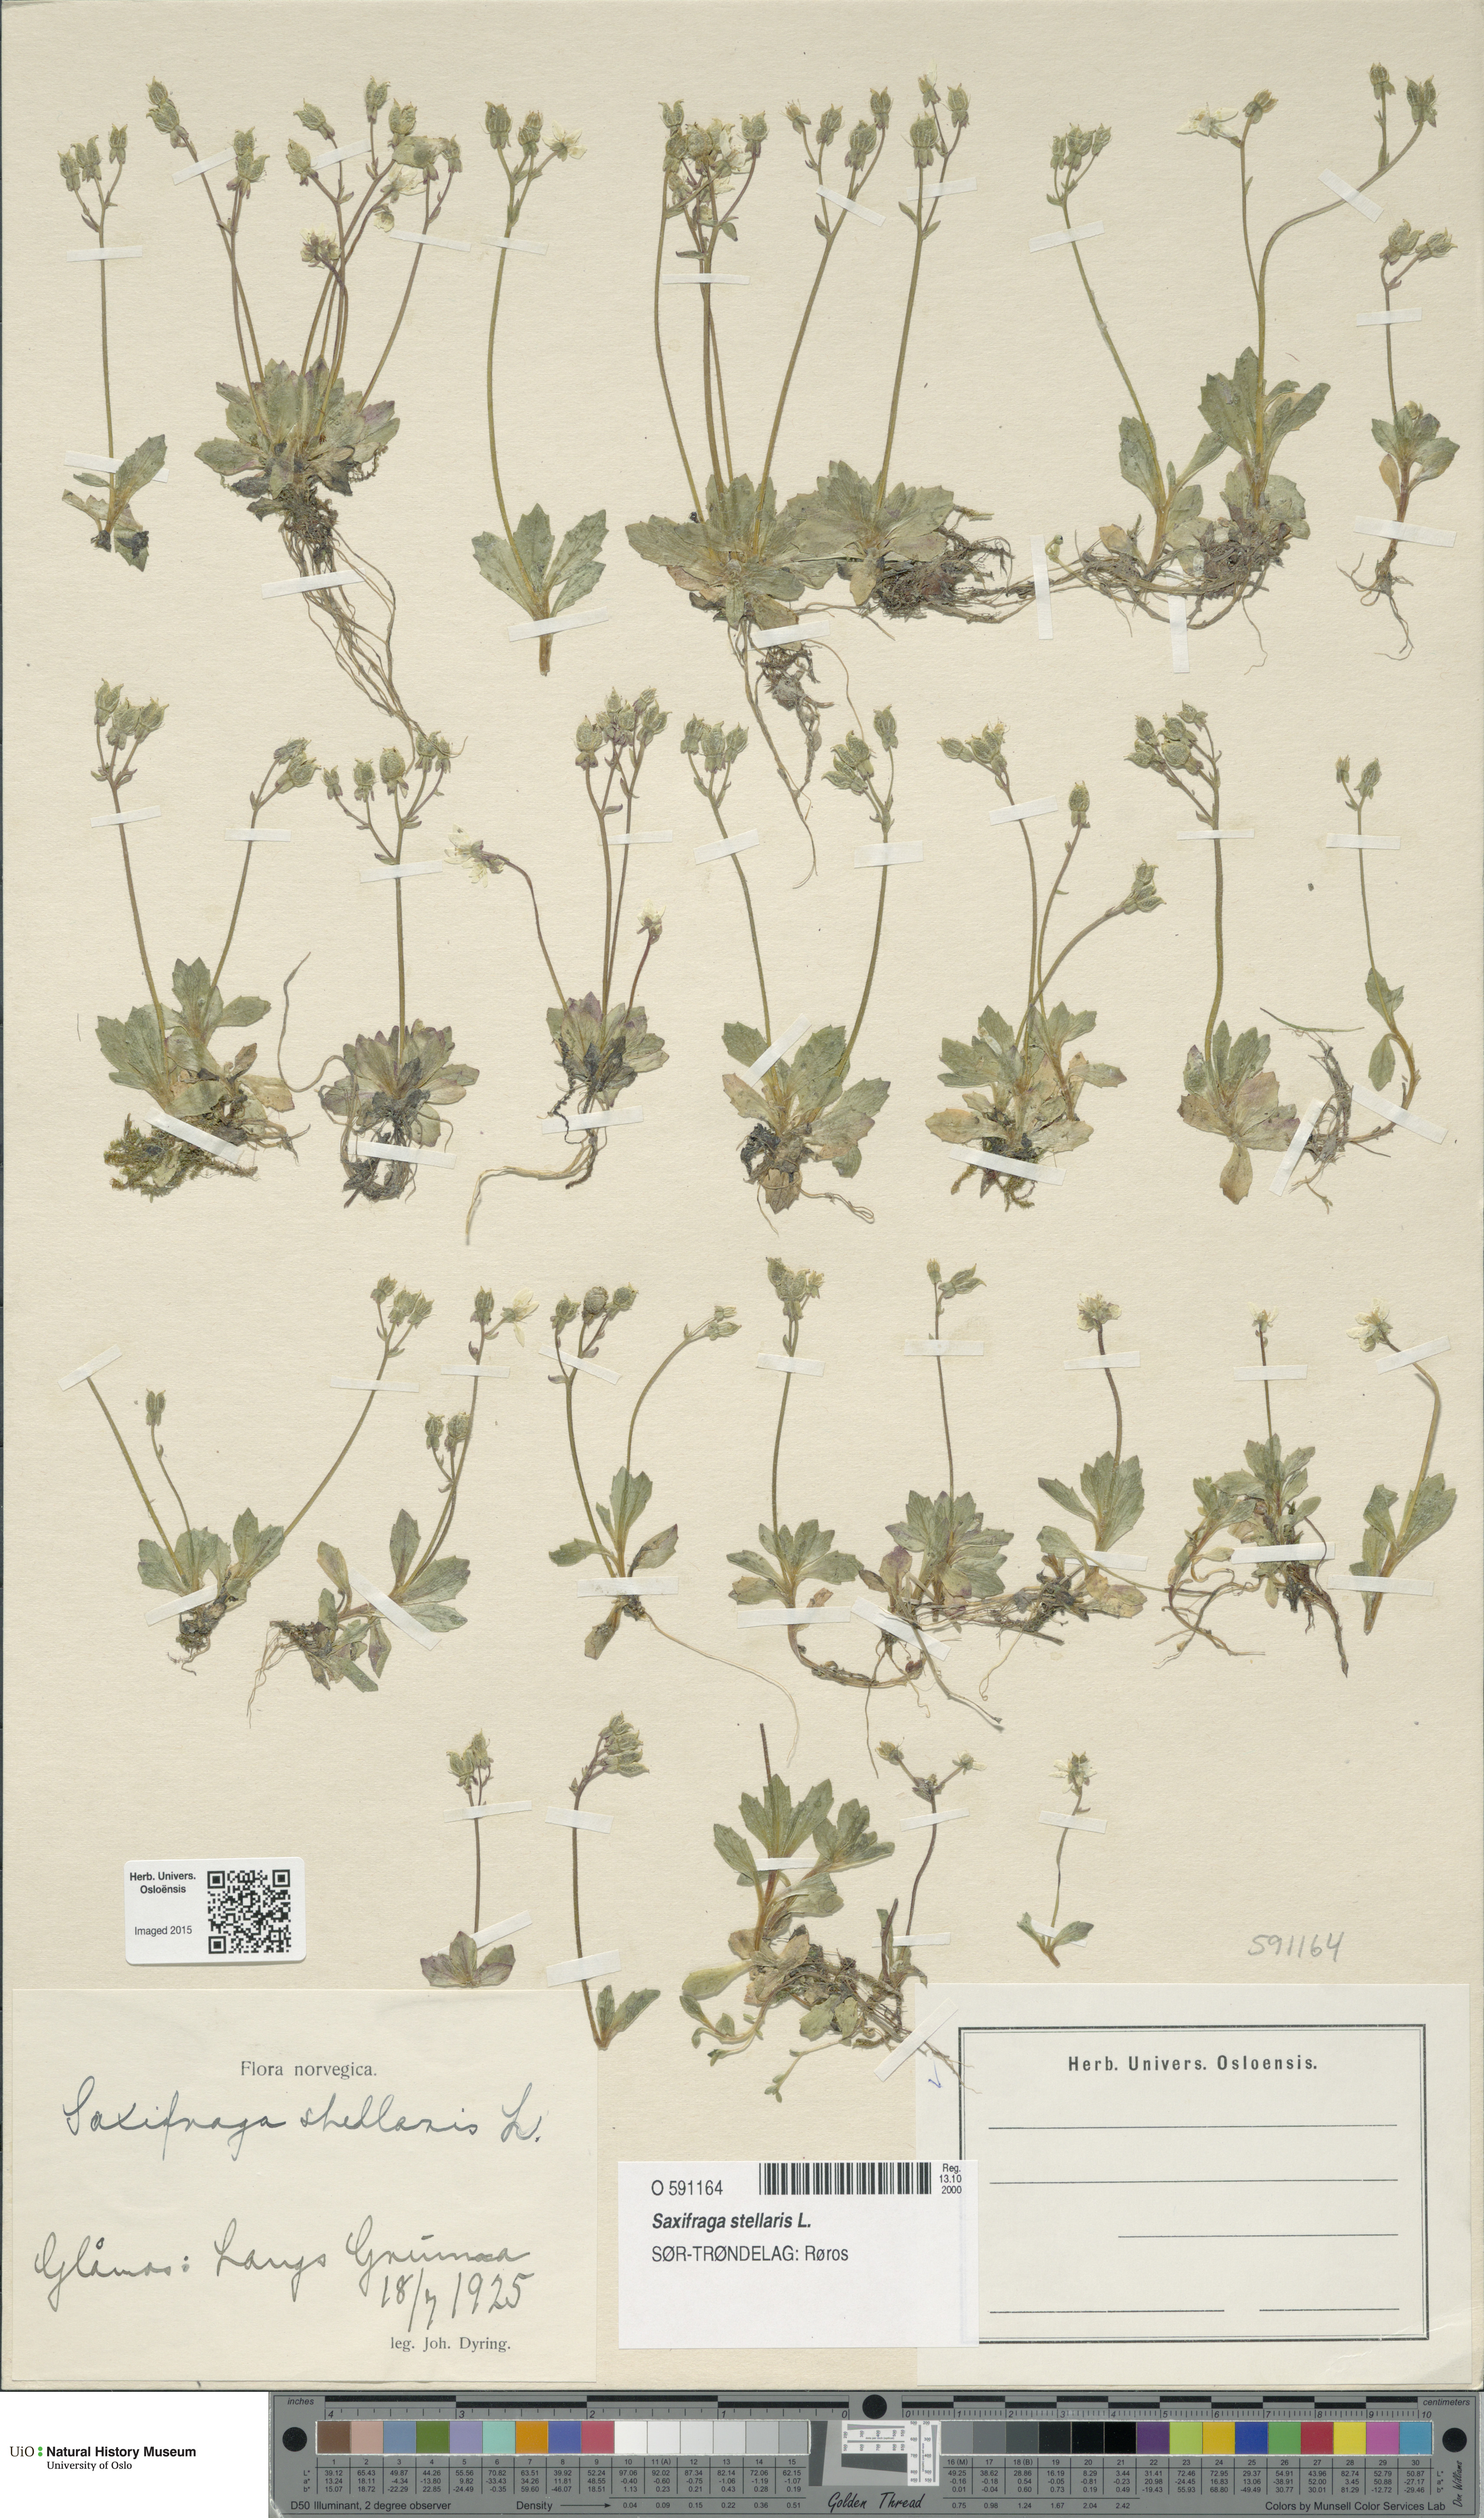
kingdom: Plantae
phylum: Tracheophyta
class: Magnoliopsida
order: Saxifragales
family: Saxifragaceae
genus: Micranthes
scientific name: Micranthes stellaris
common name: Starry saxifrage
